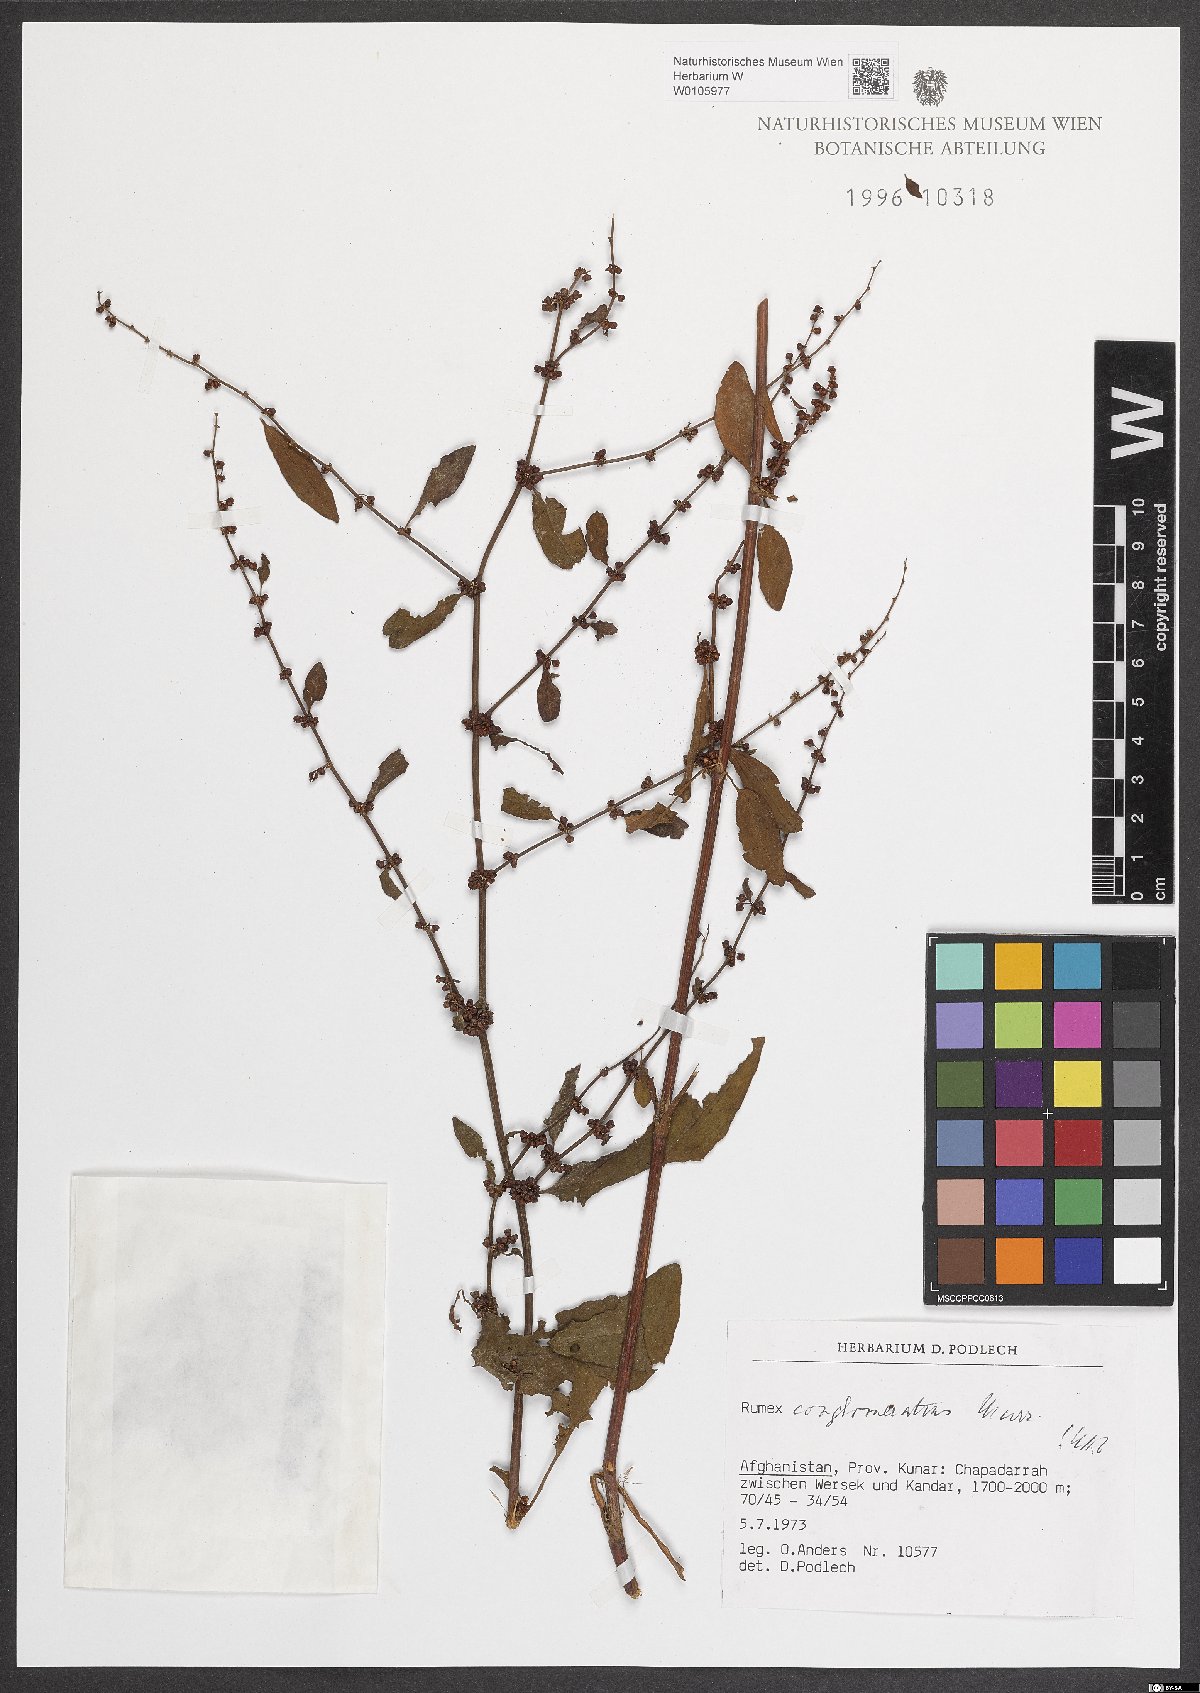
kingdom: Plantae
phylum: Tracheophyta
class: Magnoliopsida
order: Caryophyllales
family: Polygonaceae
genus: Rumex
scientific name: Rumex conglomeratus
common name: Clustered dock
